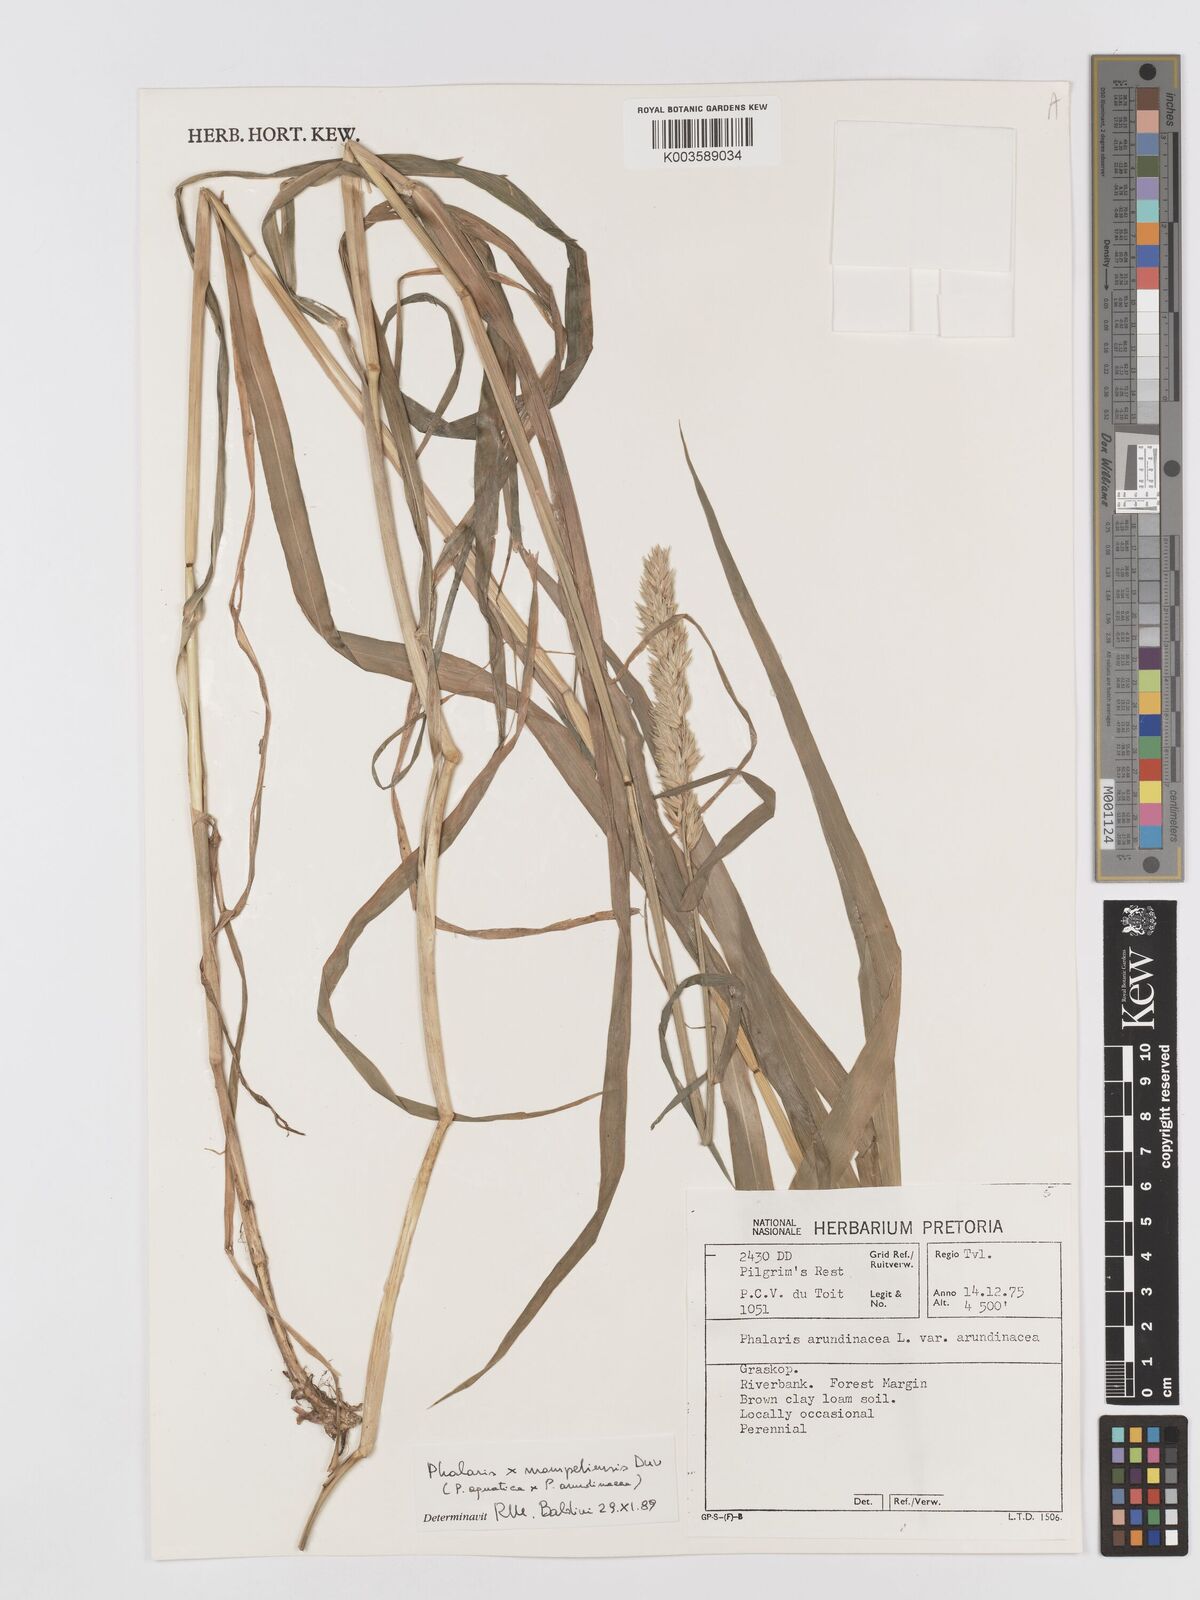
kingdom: Plantae
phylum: Tracheophyta
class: Liliopsida
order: Poales
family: Poaceae
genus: Phalaris
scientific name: Phalaris arundinacea
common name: Reed canary-grass
